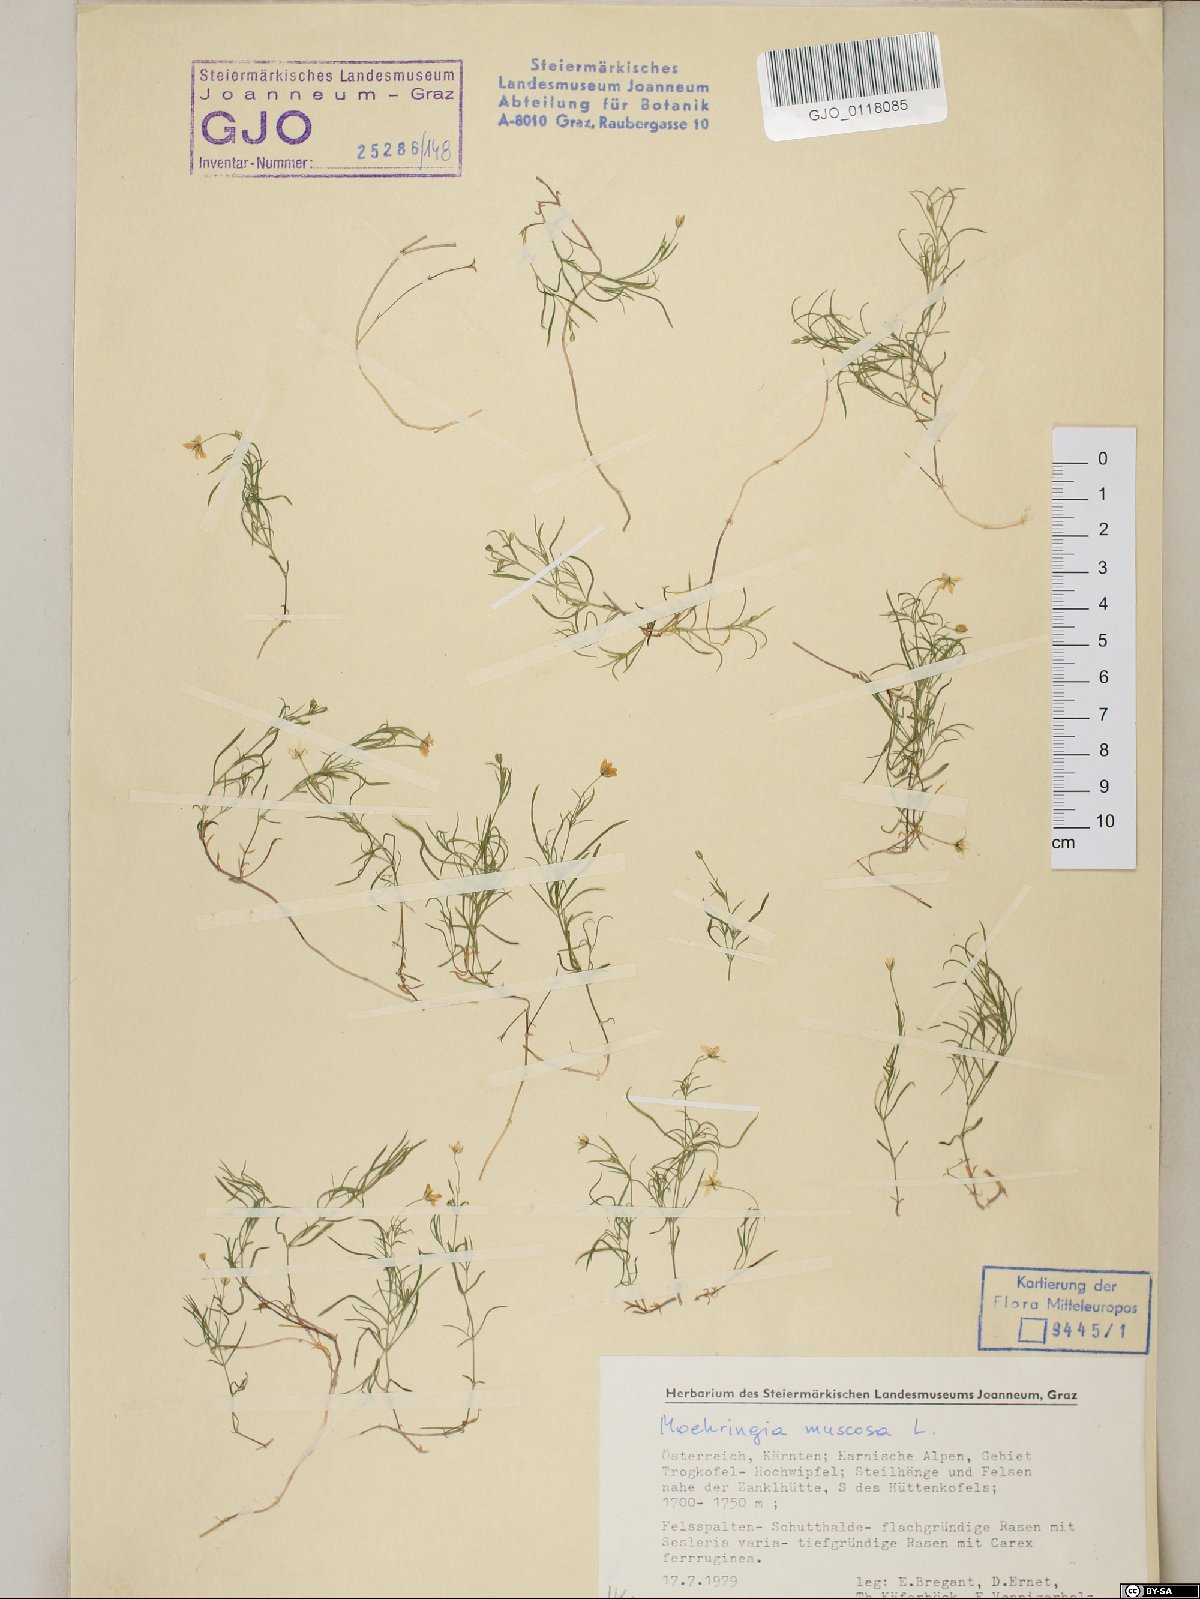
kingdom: Plantae
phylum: Tracheophyta
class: Magnoliopsida
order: Caryophyllales
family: Caryophyllaceae
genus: Moehringia
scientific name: Moehringia muscosa
